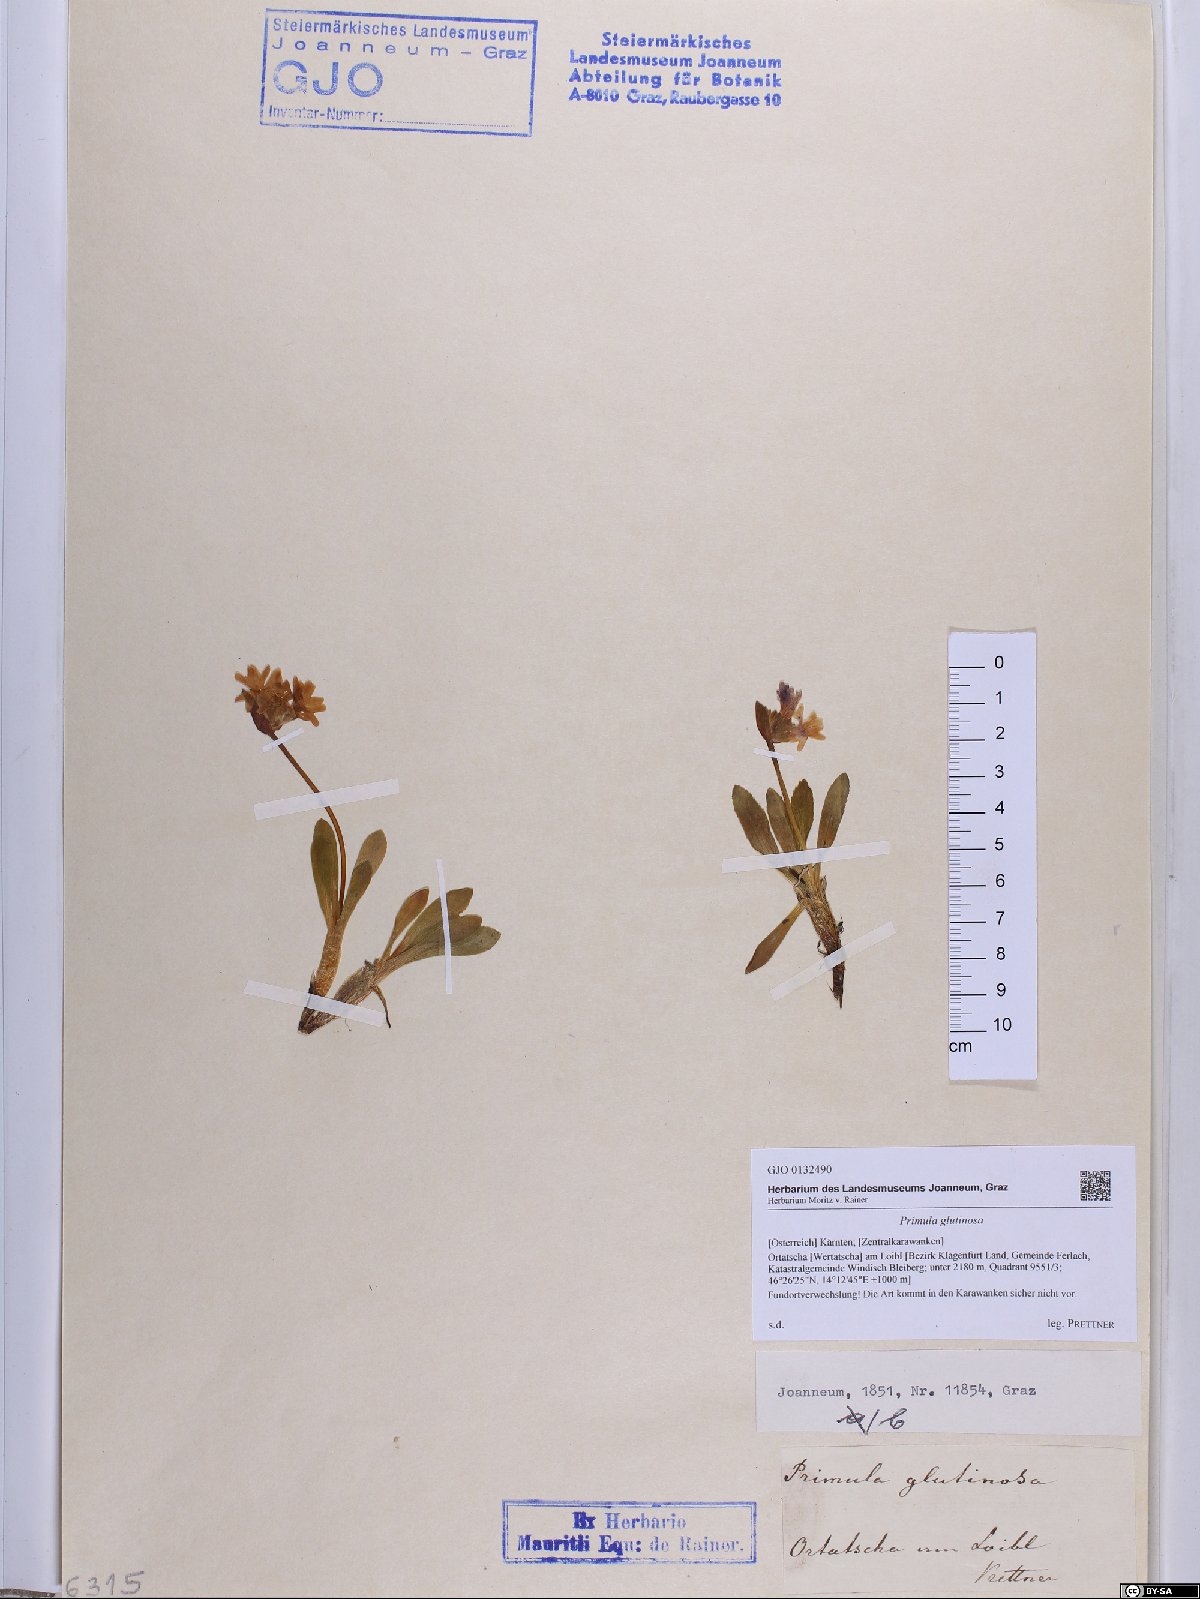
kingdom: Plantae
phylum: Tracheophyta
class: Magnoliopsida
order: Ericales
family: Primulaceae
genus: Primula
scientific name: Primula glutinosa
